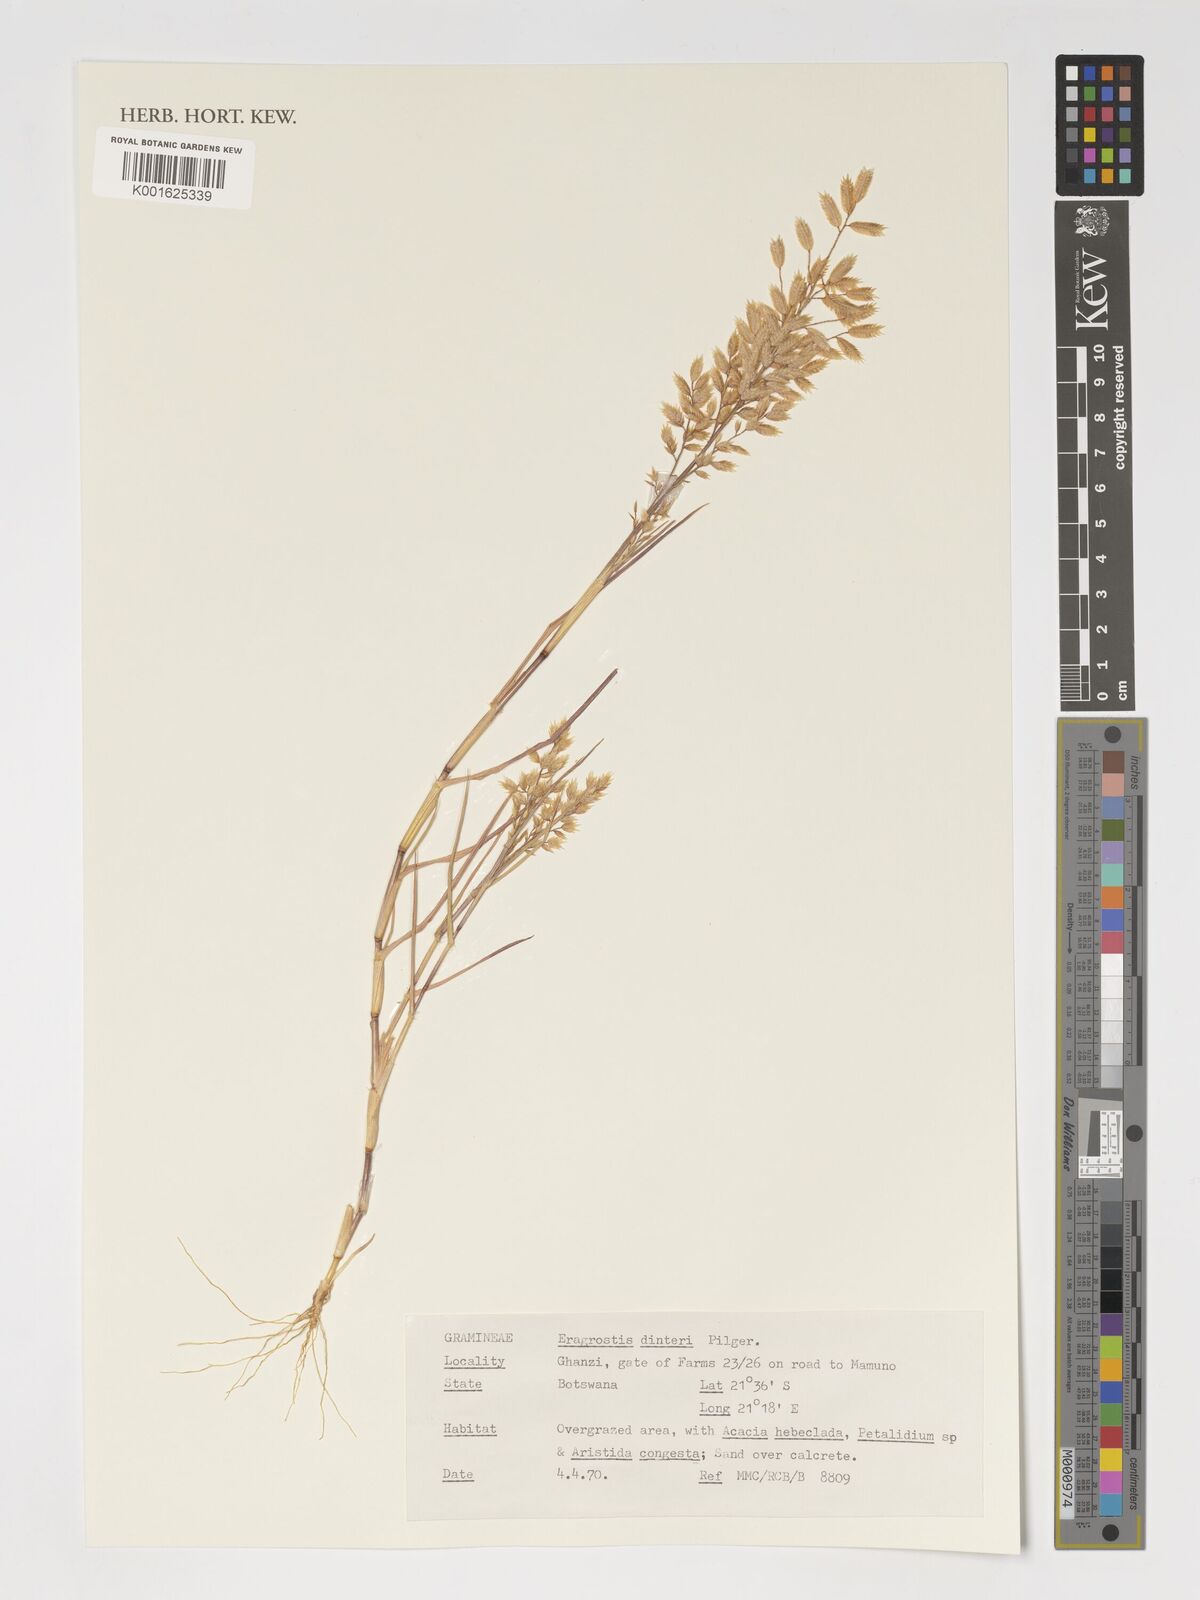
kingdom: Plantae
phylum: Tracheophyta
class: Liliopsida
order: Poales
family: Poaceae
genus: Eragrostis
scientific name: Eragrostis dinteri
